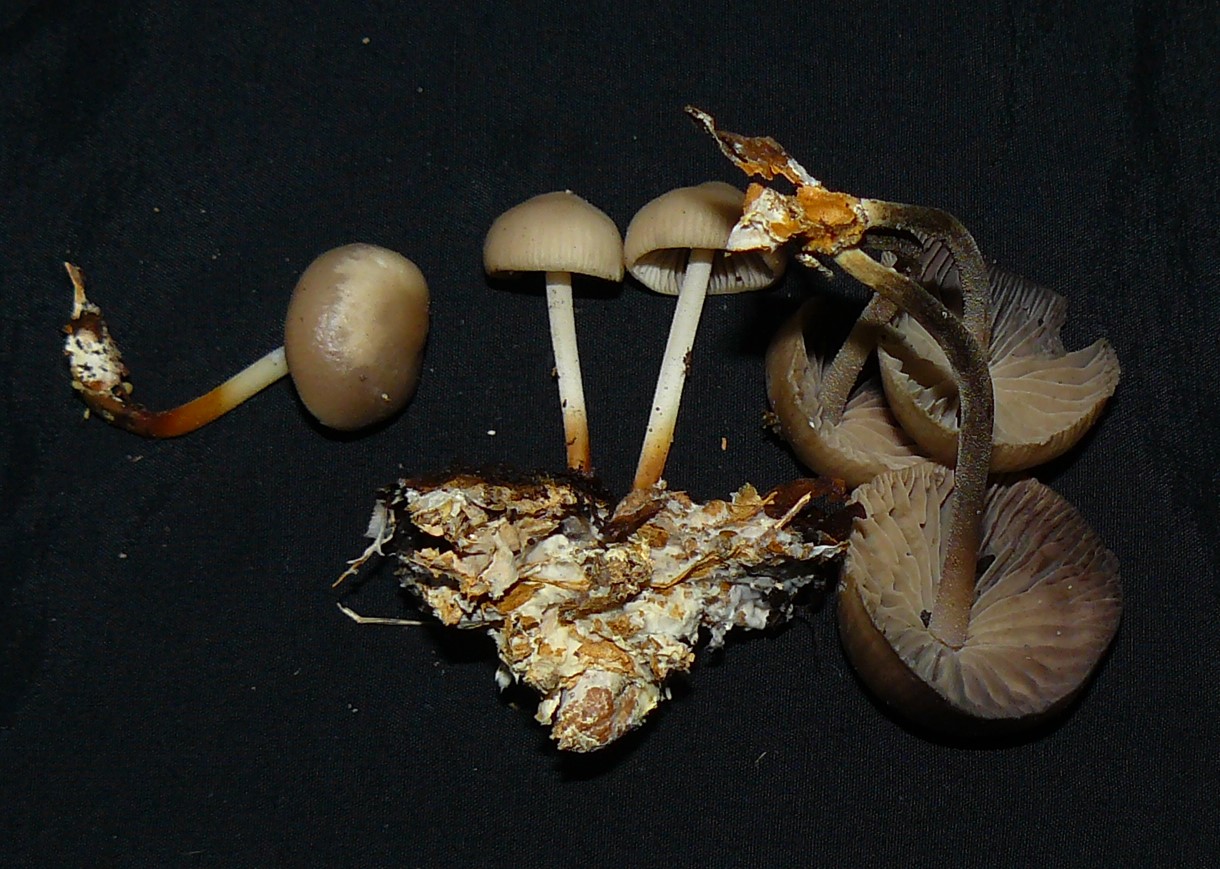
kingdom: Fungi
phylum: Basidiomycota
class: Agaricomycetes
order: Agaricales
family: Marasmiaceae
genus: Marasmius
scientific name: Marasmius wynneae
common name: hvælvet bruskhat
